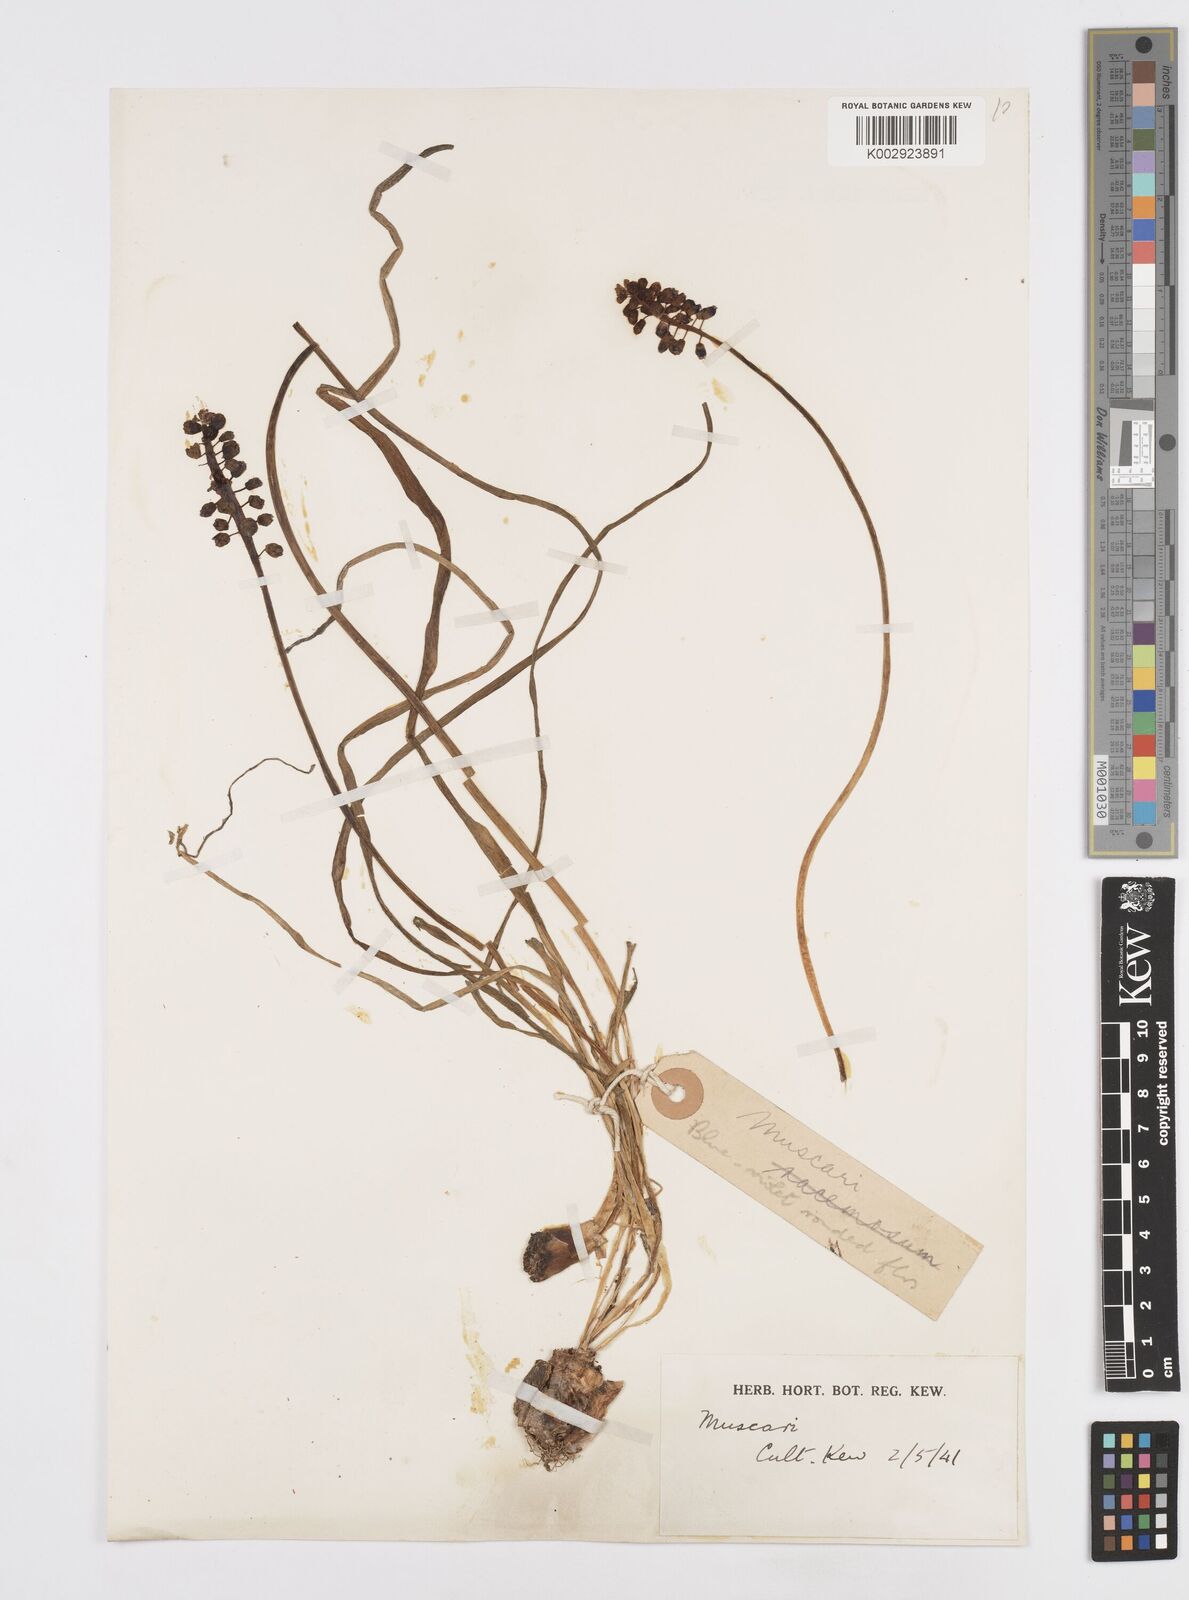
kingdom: Plantae
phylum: Tracheophyta
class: Liliopsida
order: Asparagales
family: Asparagaceae
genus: Muscari
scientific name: Muscari
